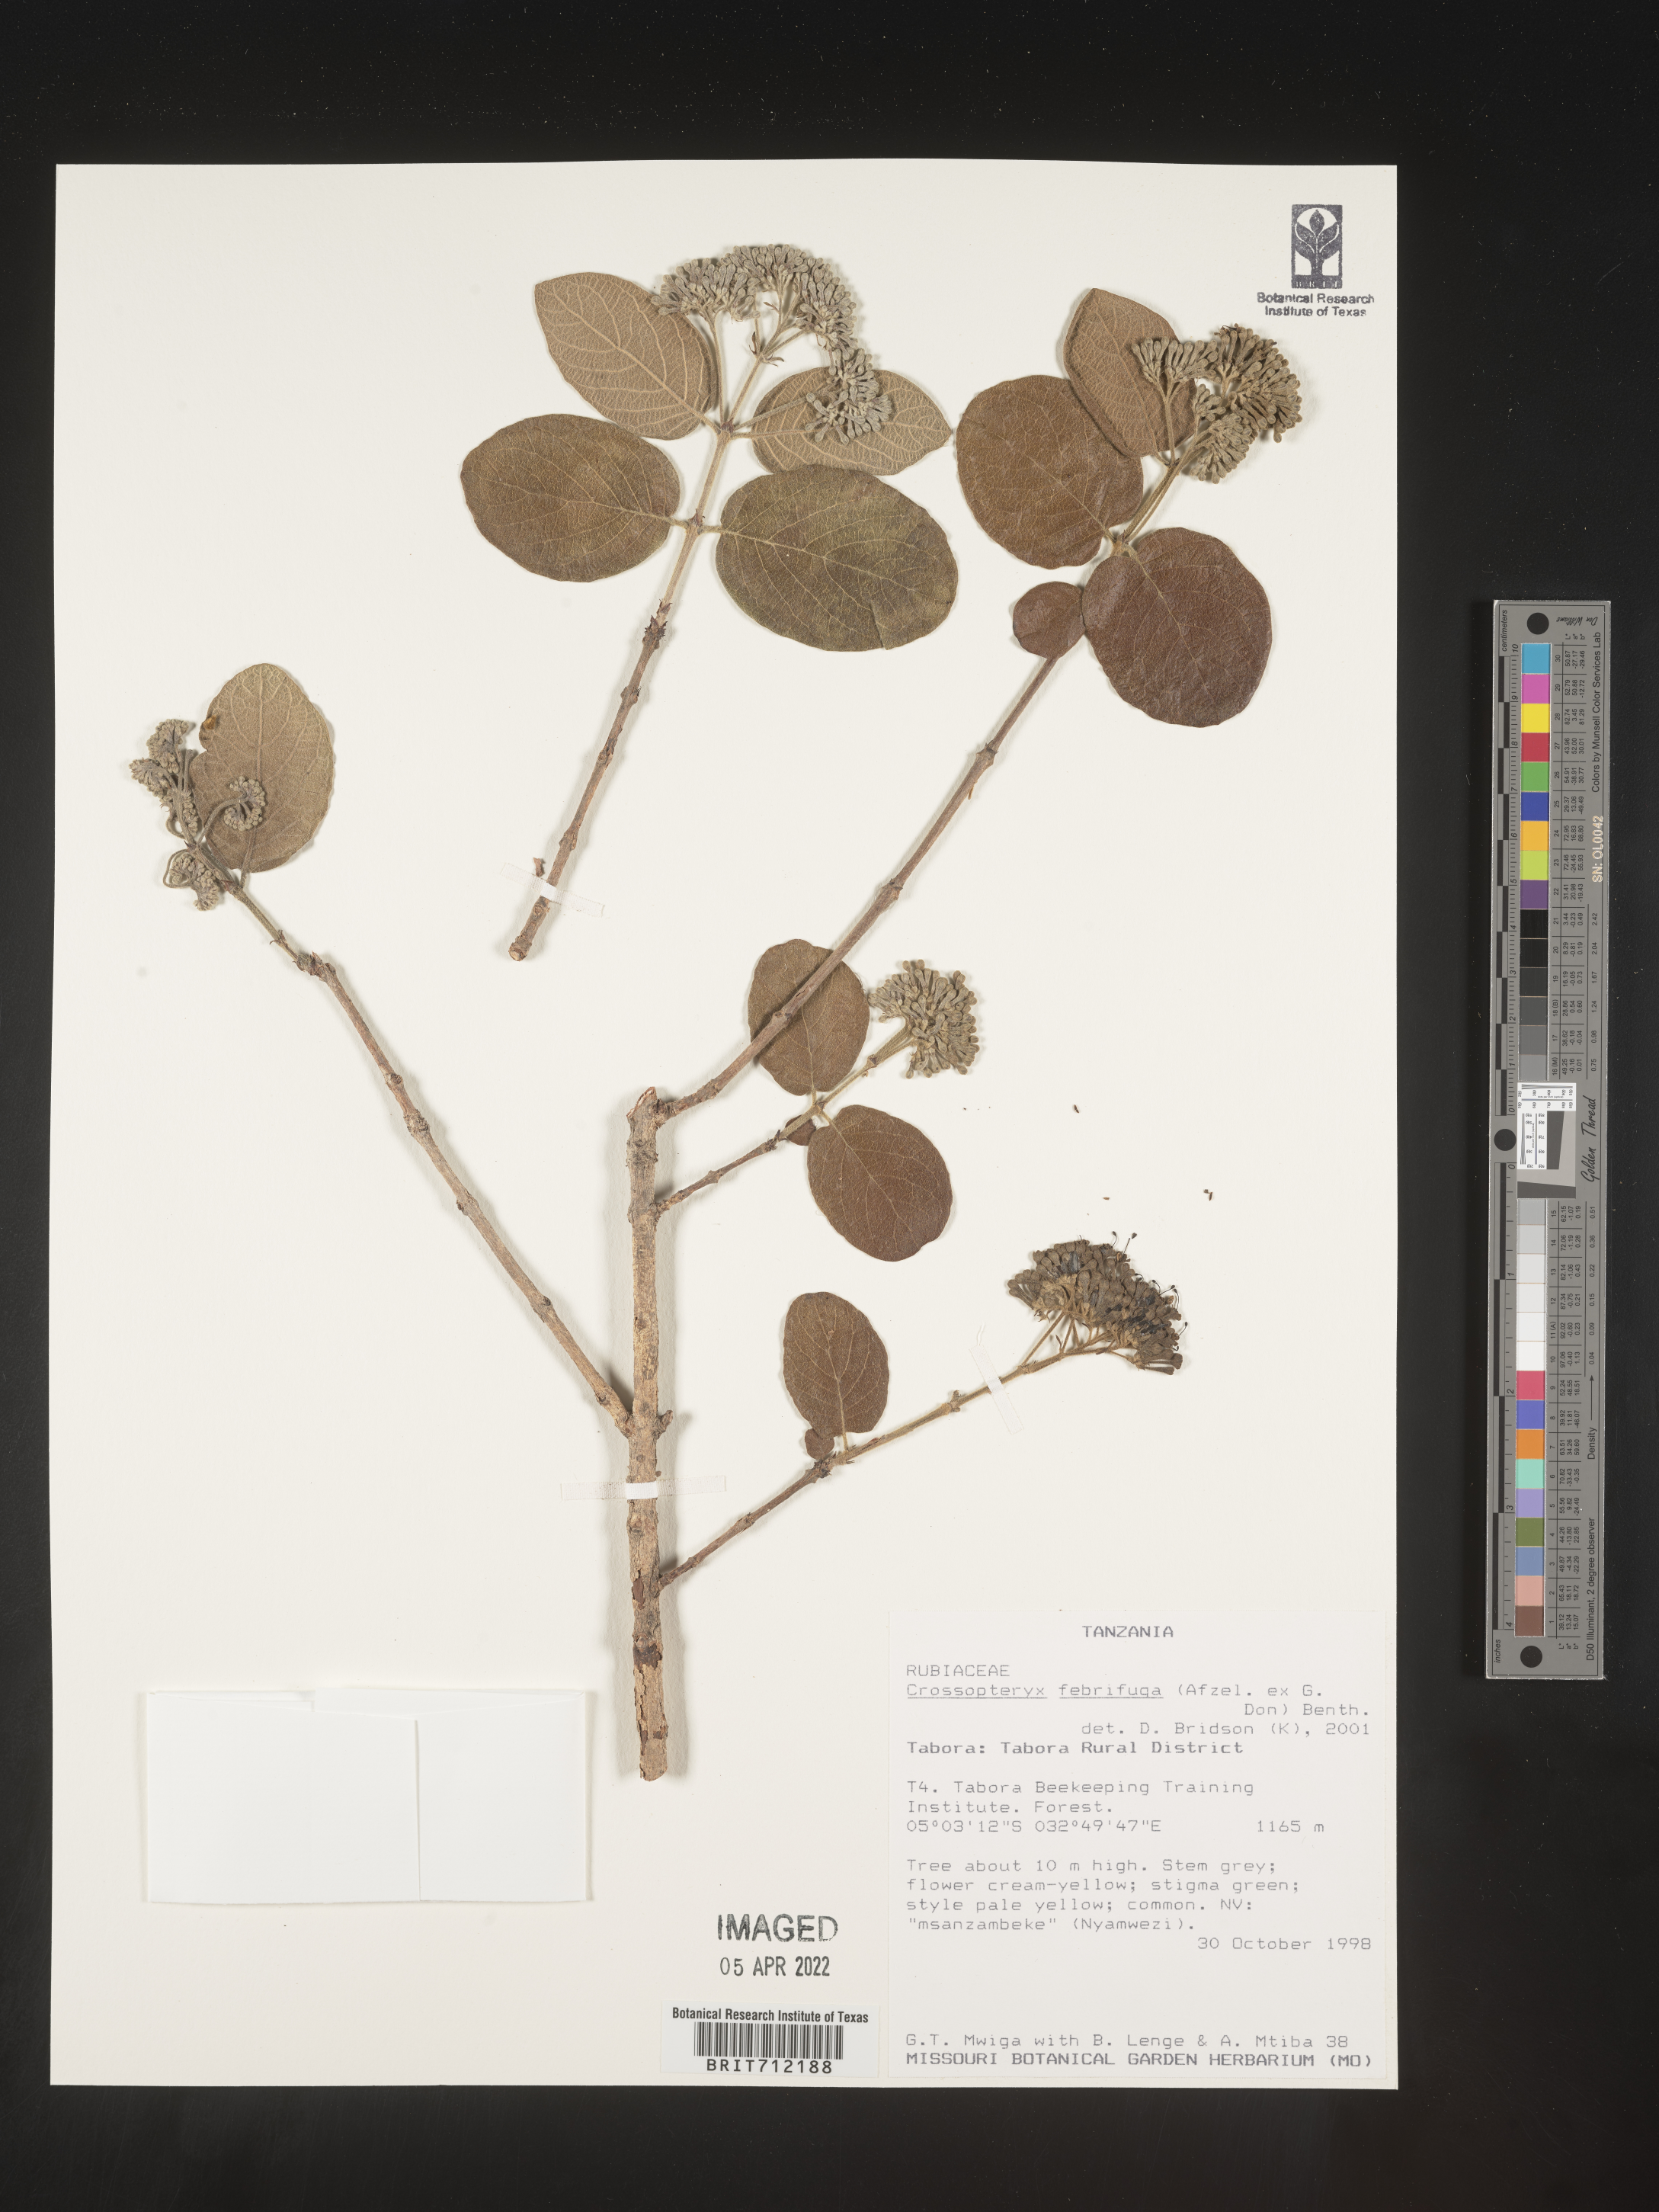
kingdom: Plantae
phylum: Tracheophyta
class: Magnoliopsida
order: Gentianales
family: Rubiaceae
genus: Crossopteryx
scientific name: Crossopteryx
